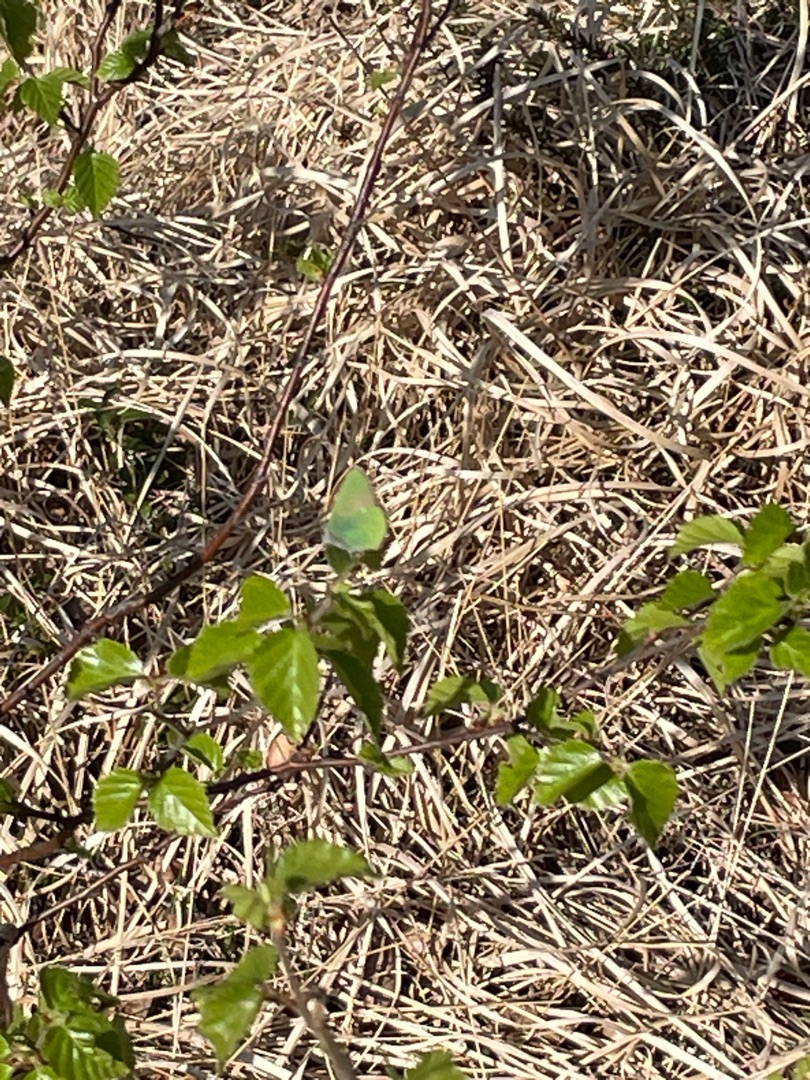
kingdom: Animalia
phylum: Arthropoda
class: Insecta
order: Lepidoptera
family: Lycaenidae
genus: Callophrys
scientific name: Callophrys rubi
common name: Grøn busksommerfugl
